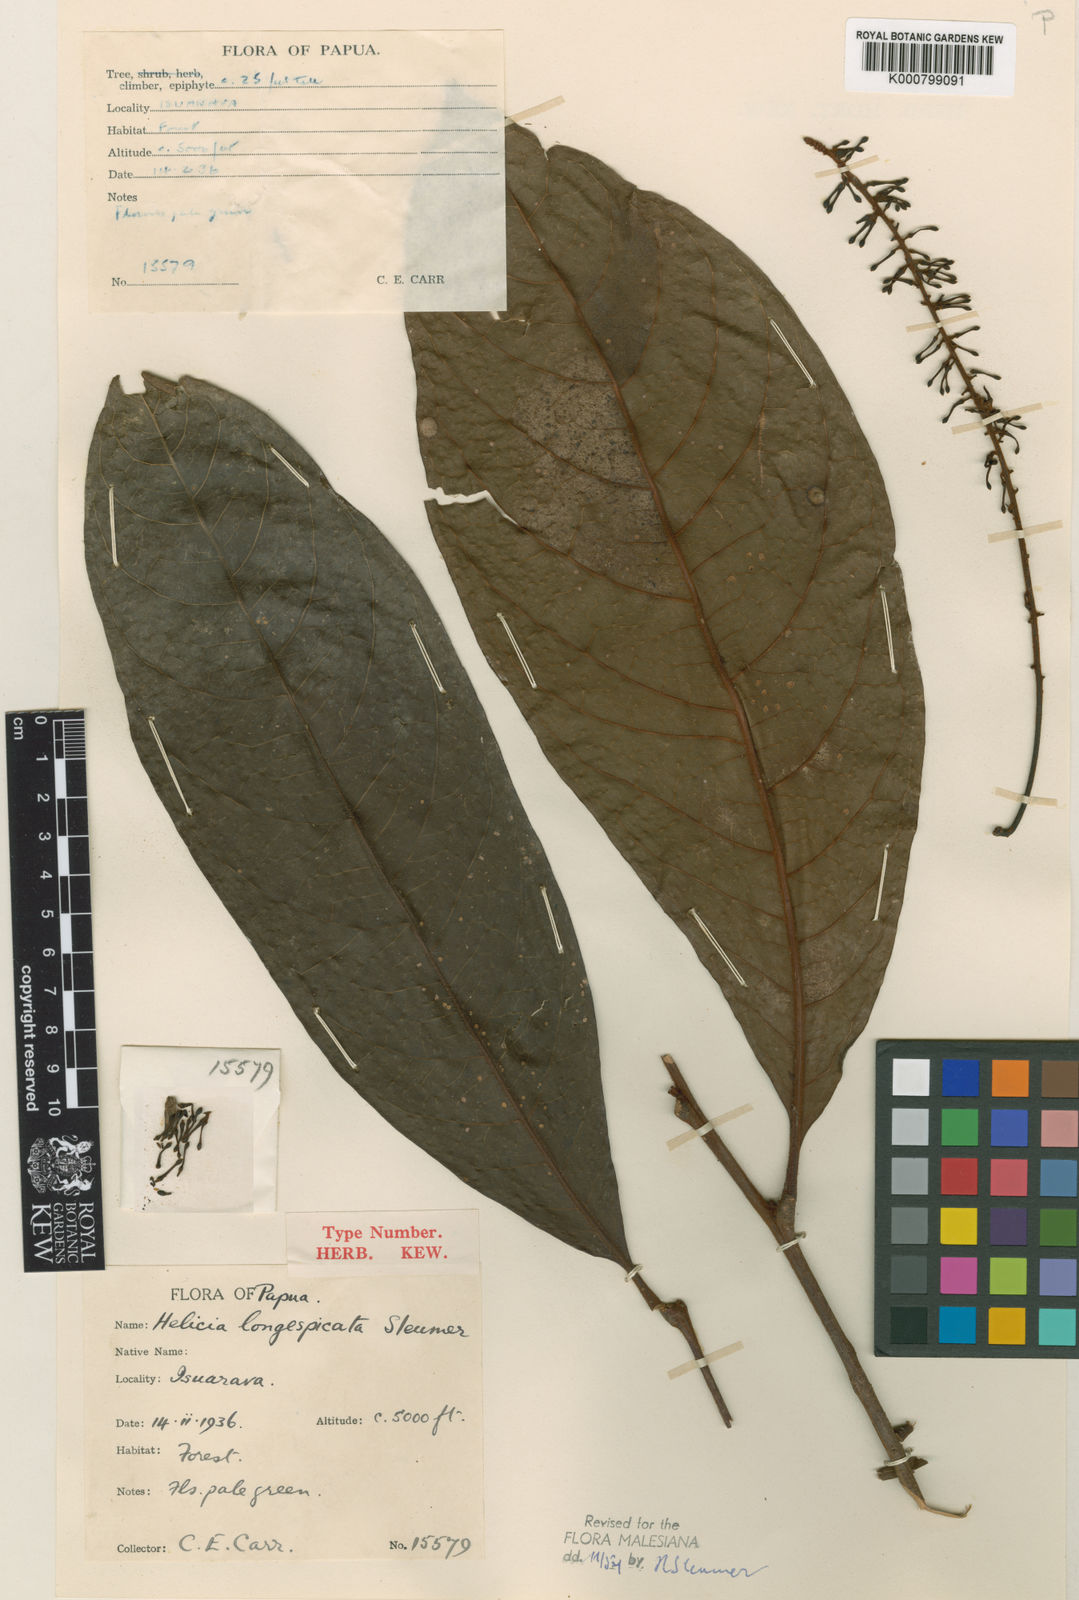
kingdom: Plantae
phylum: Tracheophyta
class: Magnoliopsida
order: Proteales
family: Proteaceae
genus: Helicia
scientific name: Helicia longespicata
